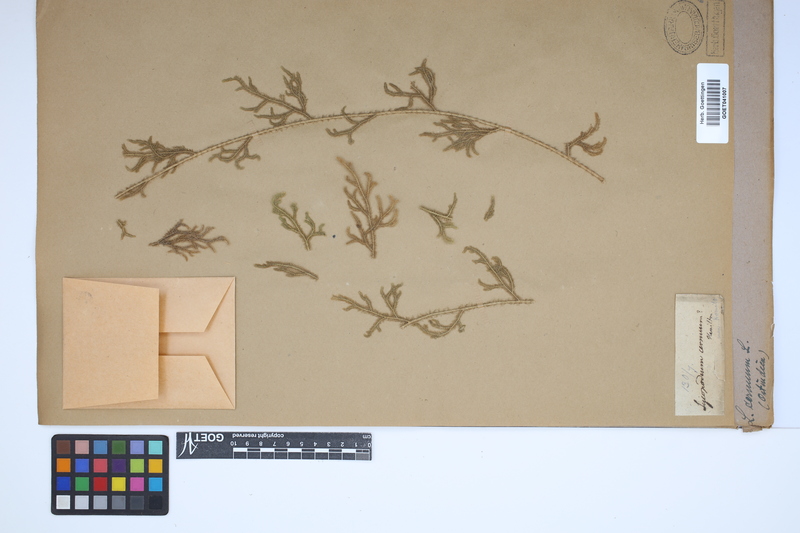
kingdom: Plantae
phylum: Tracheophyta
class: Lycopodiopsida
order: Lycopodiales
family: Lycopodiaceae
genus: Palhinhaea
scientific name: Palhinhaea cernua
